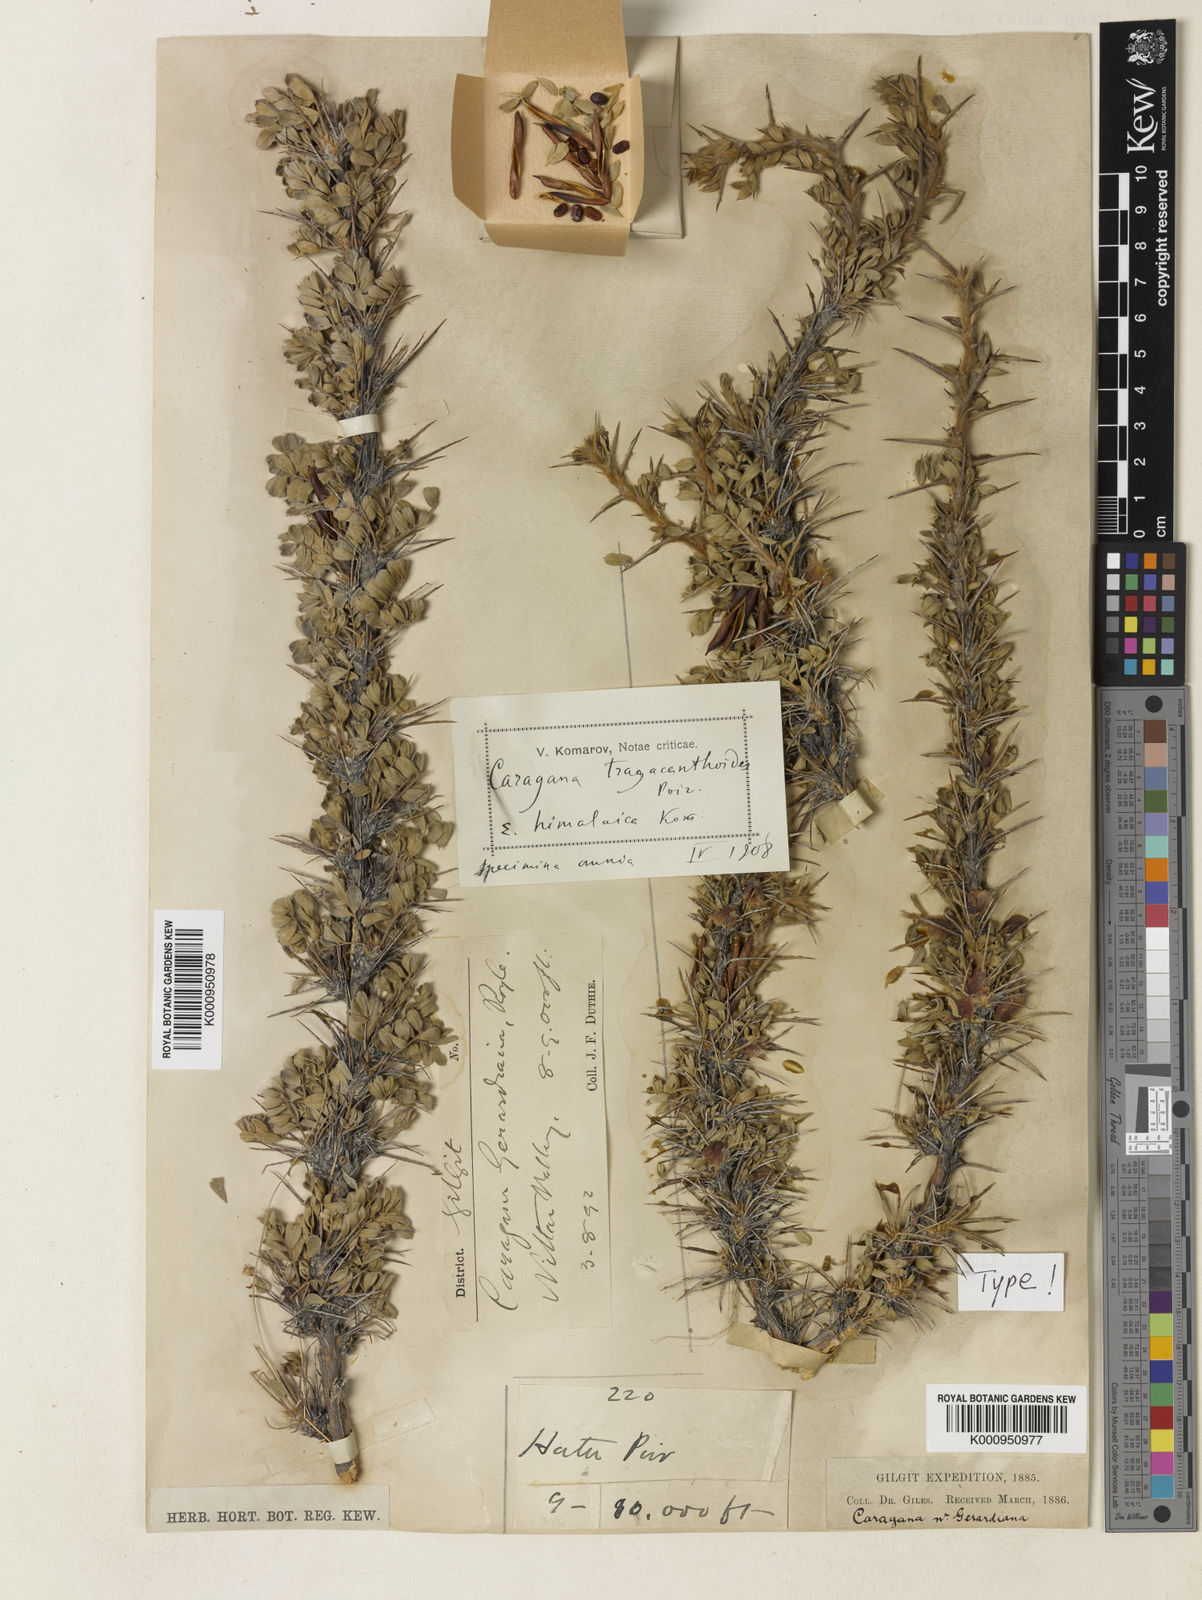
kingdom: Plantae
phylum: Tracheophyta
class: Magnoliopsida
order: Fabales
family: Fabaceae
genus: Caragana
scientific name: Caragana tragacanthoides
